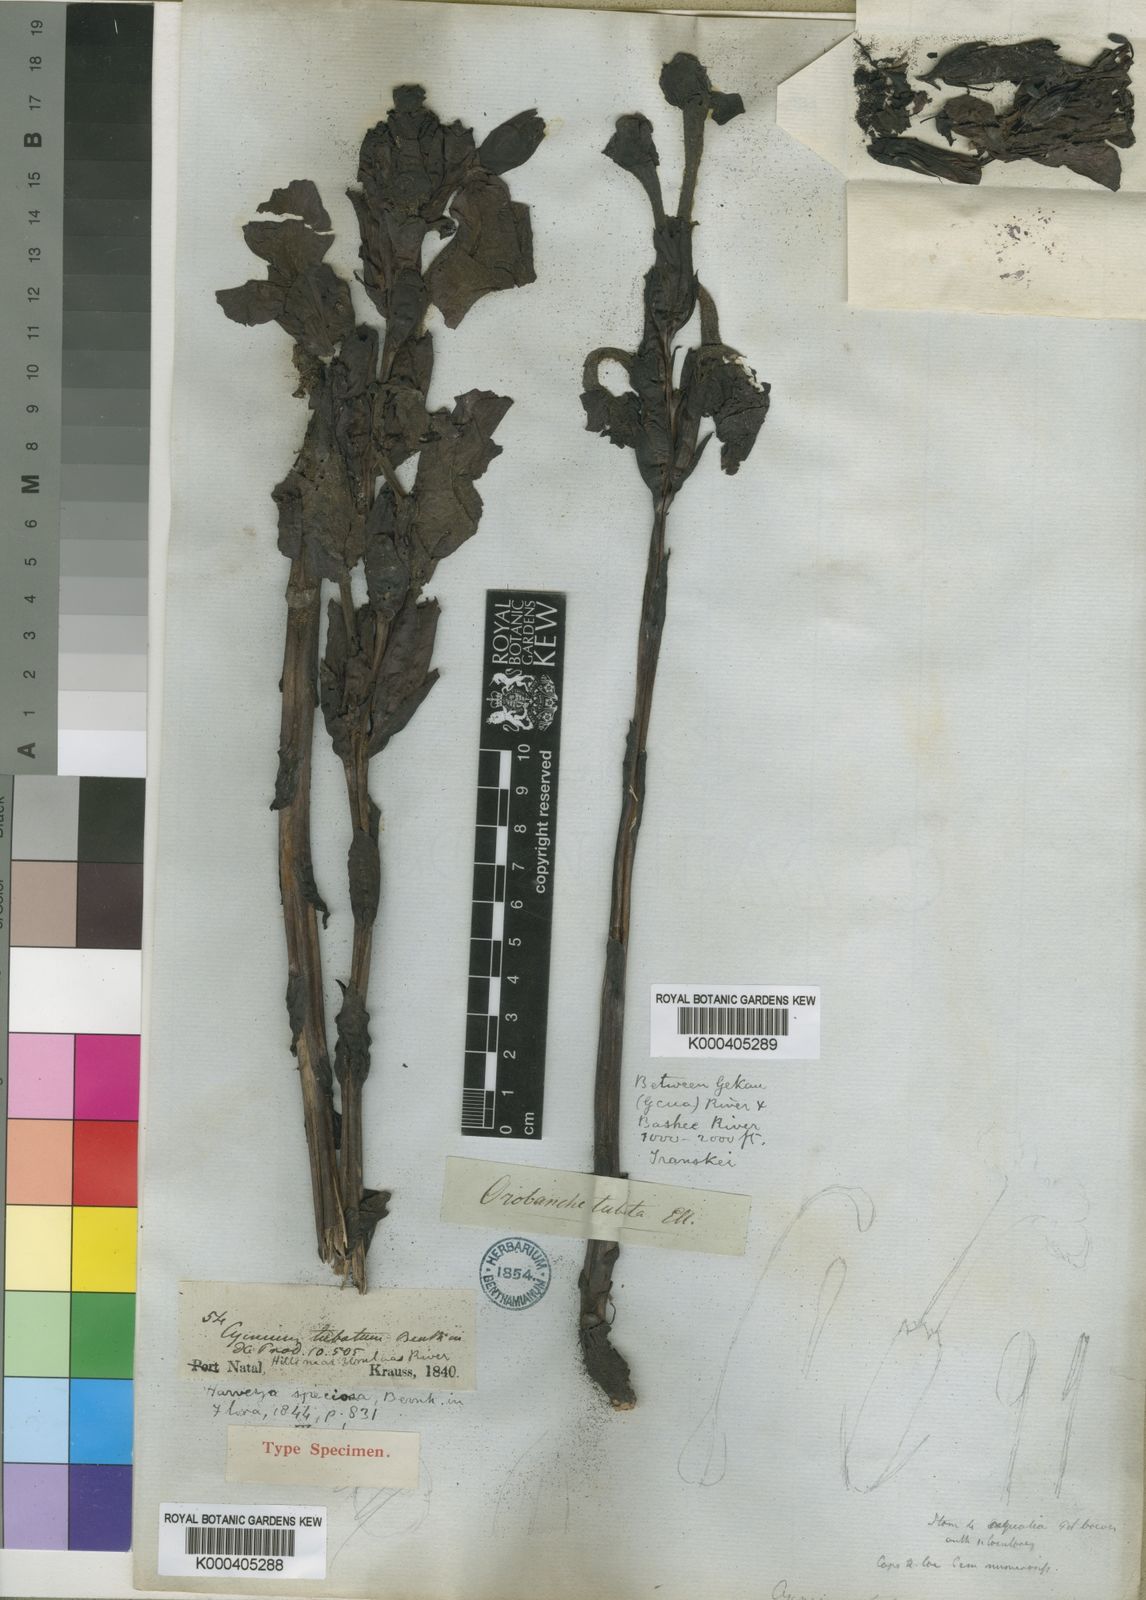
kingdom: Plantae
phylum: Tracheophyta
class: Magnoliopsida
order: Lamiales
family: Orobanchaceae
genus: Harveya
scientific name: Harveya speciosa
